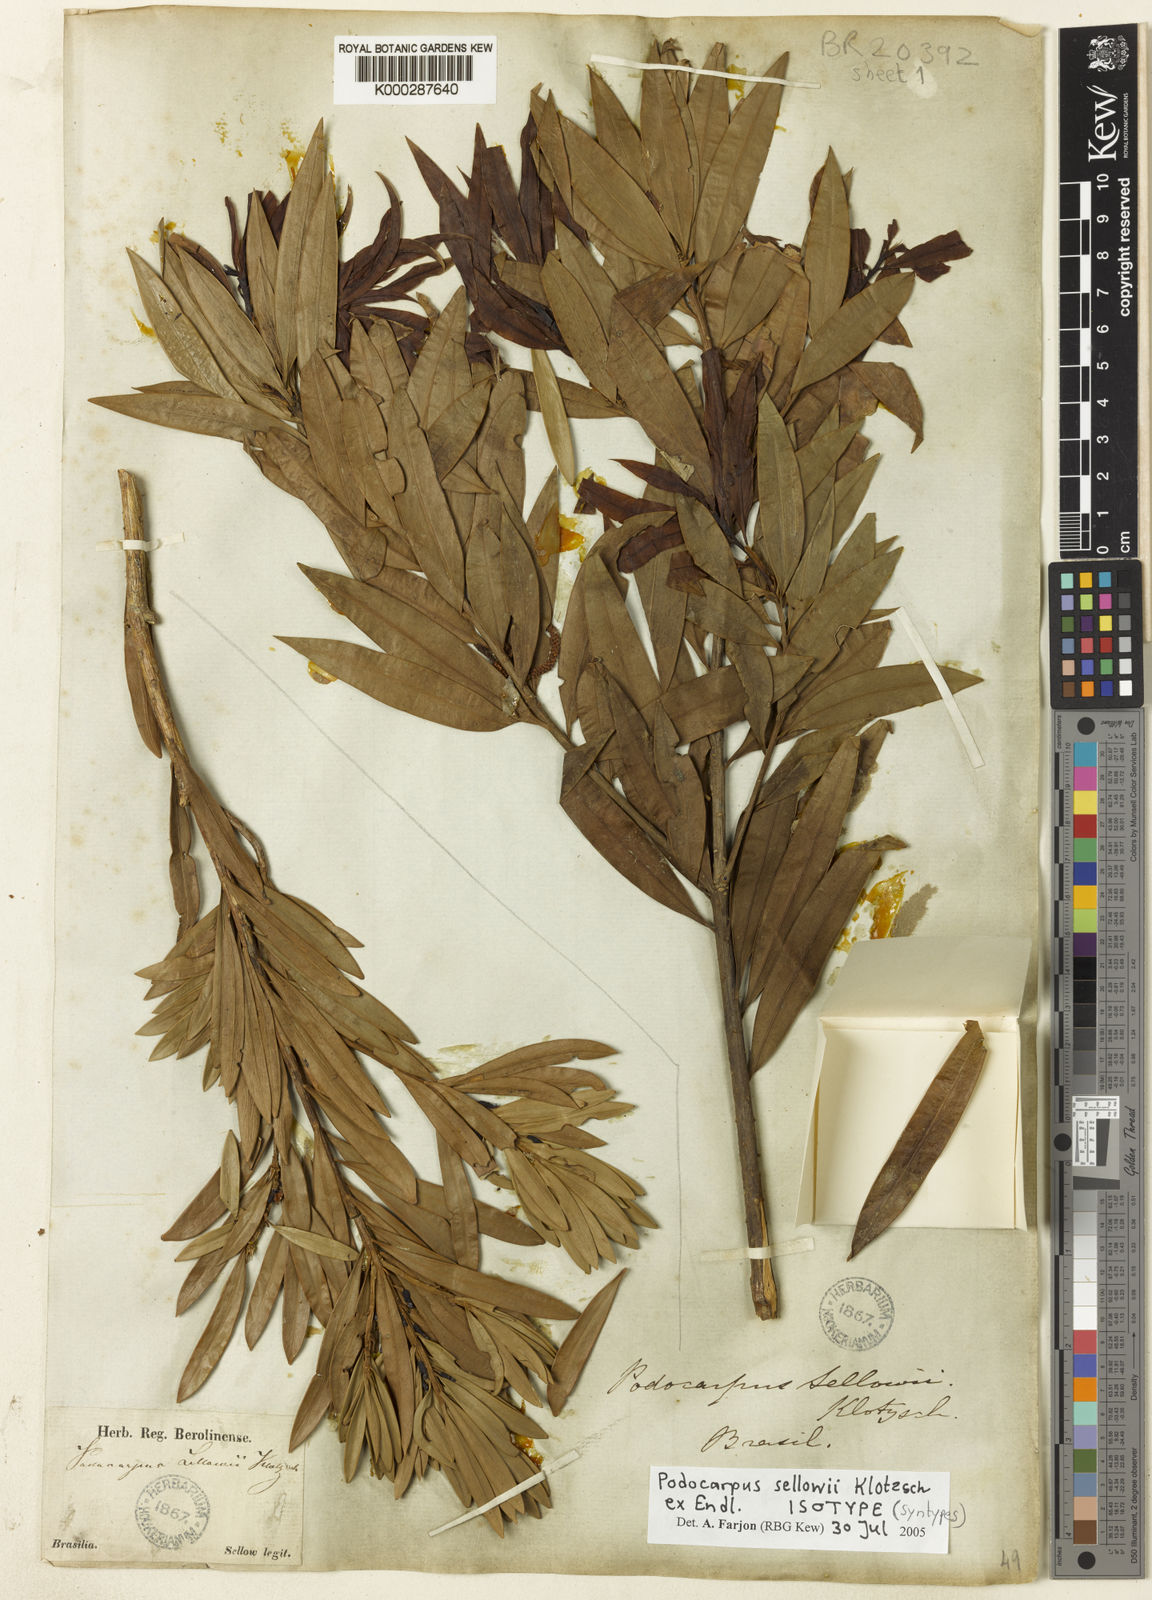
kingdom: Plantae
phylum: Tracheophyta
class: Pinopsida
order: Pinales
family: Podocarpaceae
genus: Podocarpus
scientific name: Podocarpus sellowii
